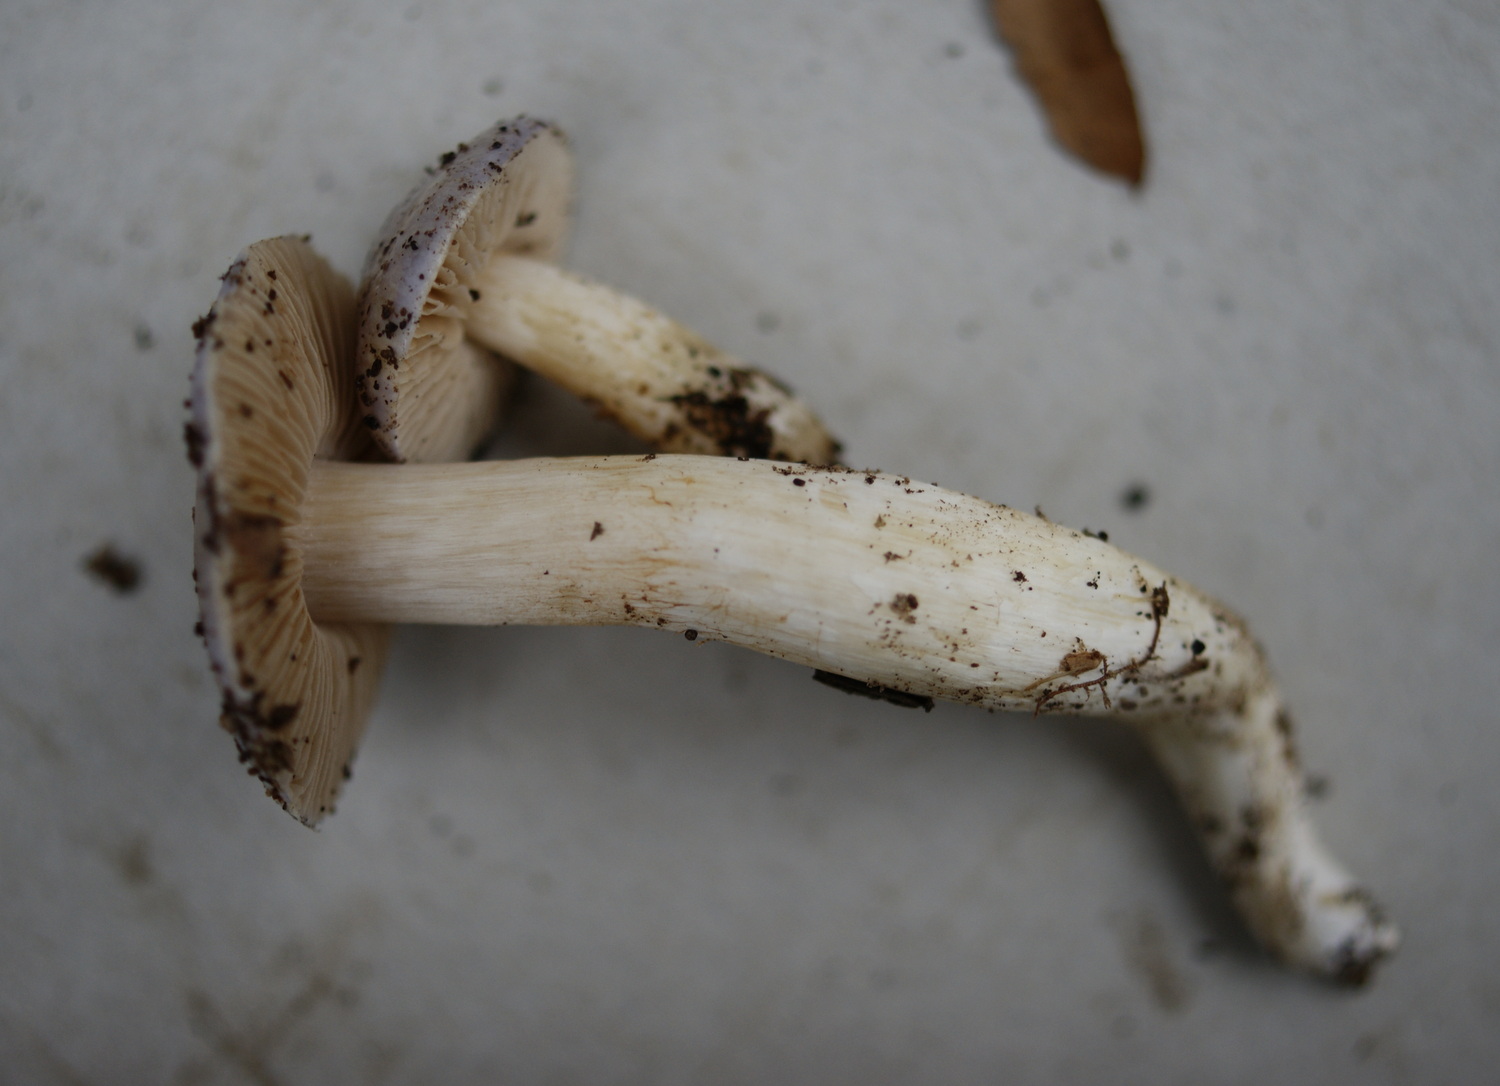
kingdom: Fungi
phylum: Basidiomycota
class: Agaricomycetes
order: Agaricales
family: Cortinariaceae
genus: Thaxterogaster
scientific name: Thaxterogaster croceocoeruleus
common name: blågullig slørhat
